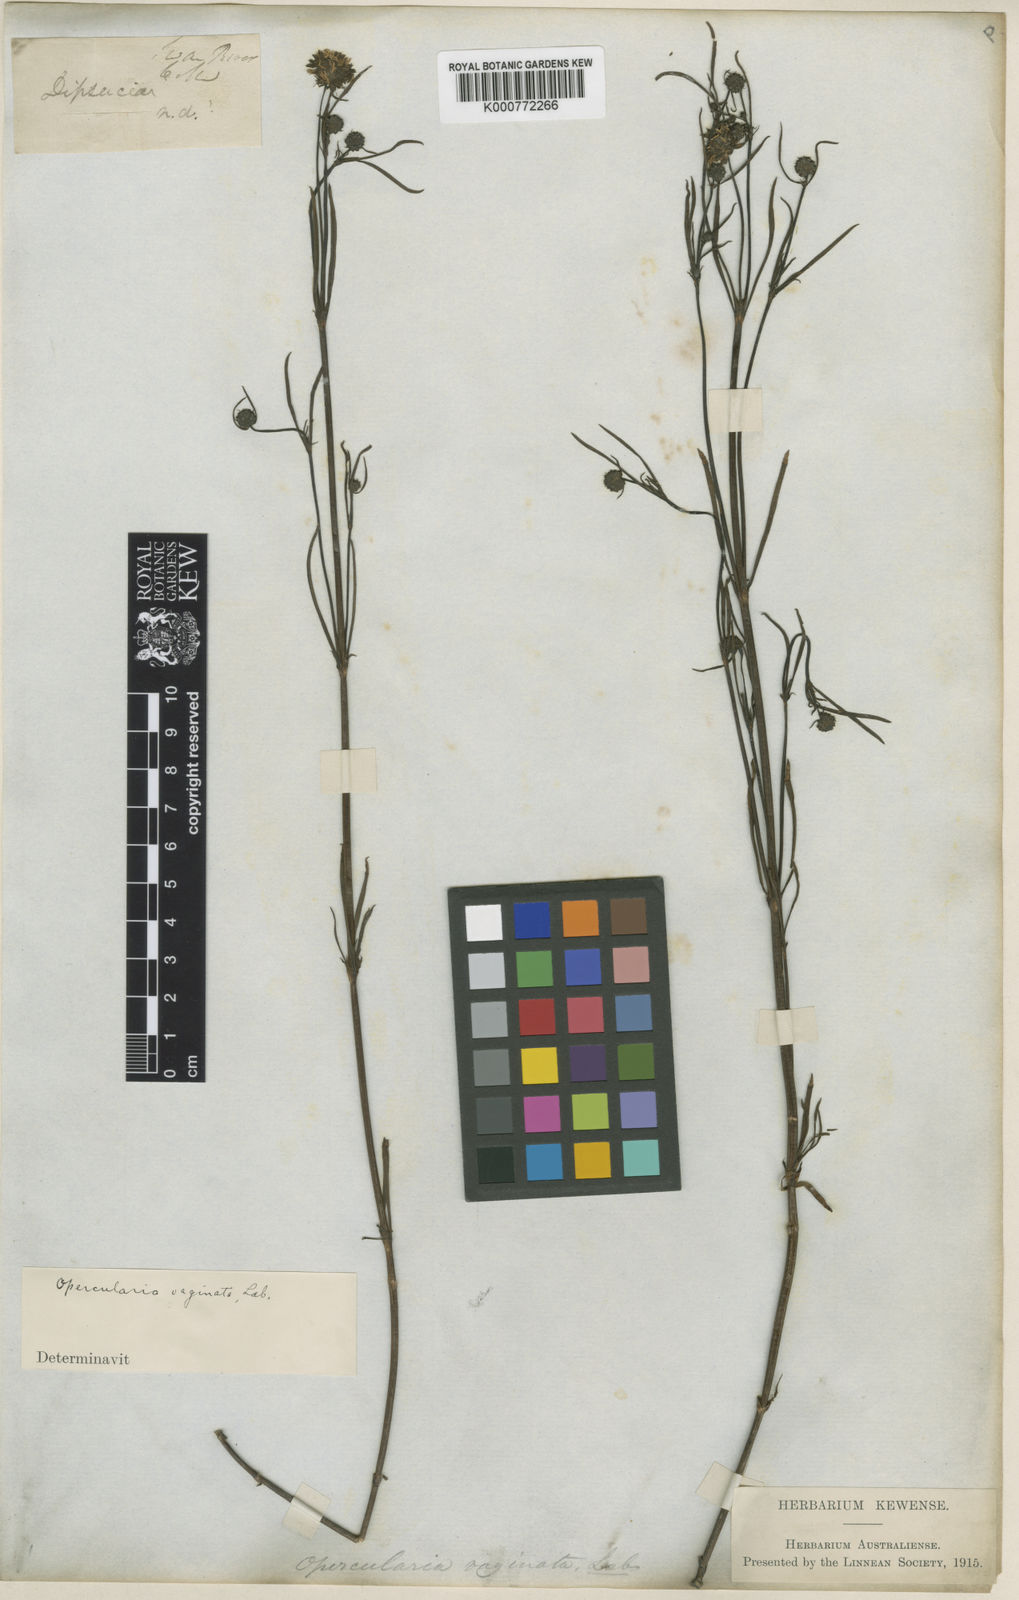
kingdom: Plantae
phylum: Tracheophyta
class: Magnoliopsida
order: Gentianales
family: Rubiaceae
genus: Opercularia
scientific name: Opercularia
